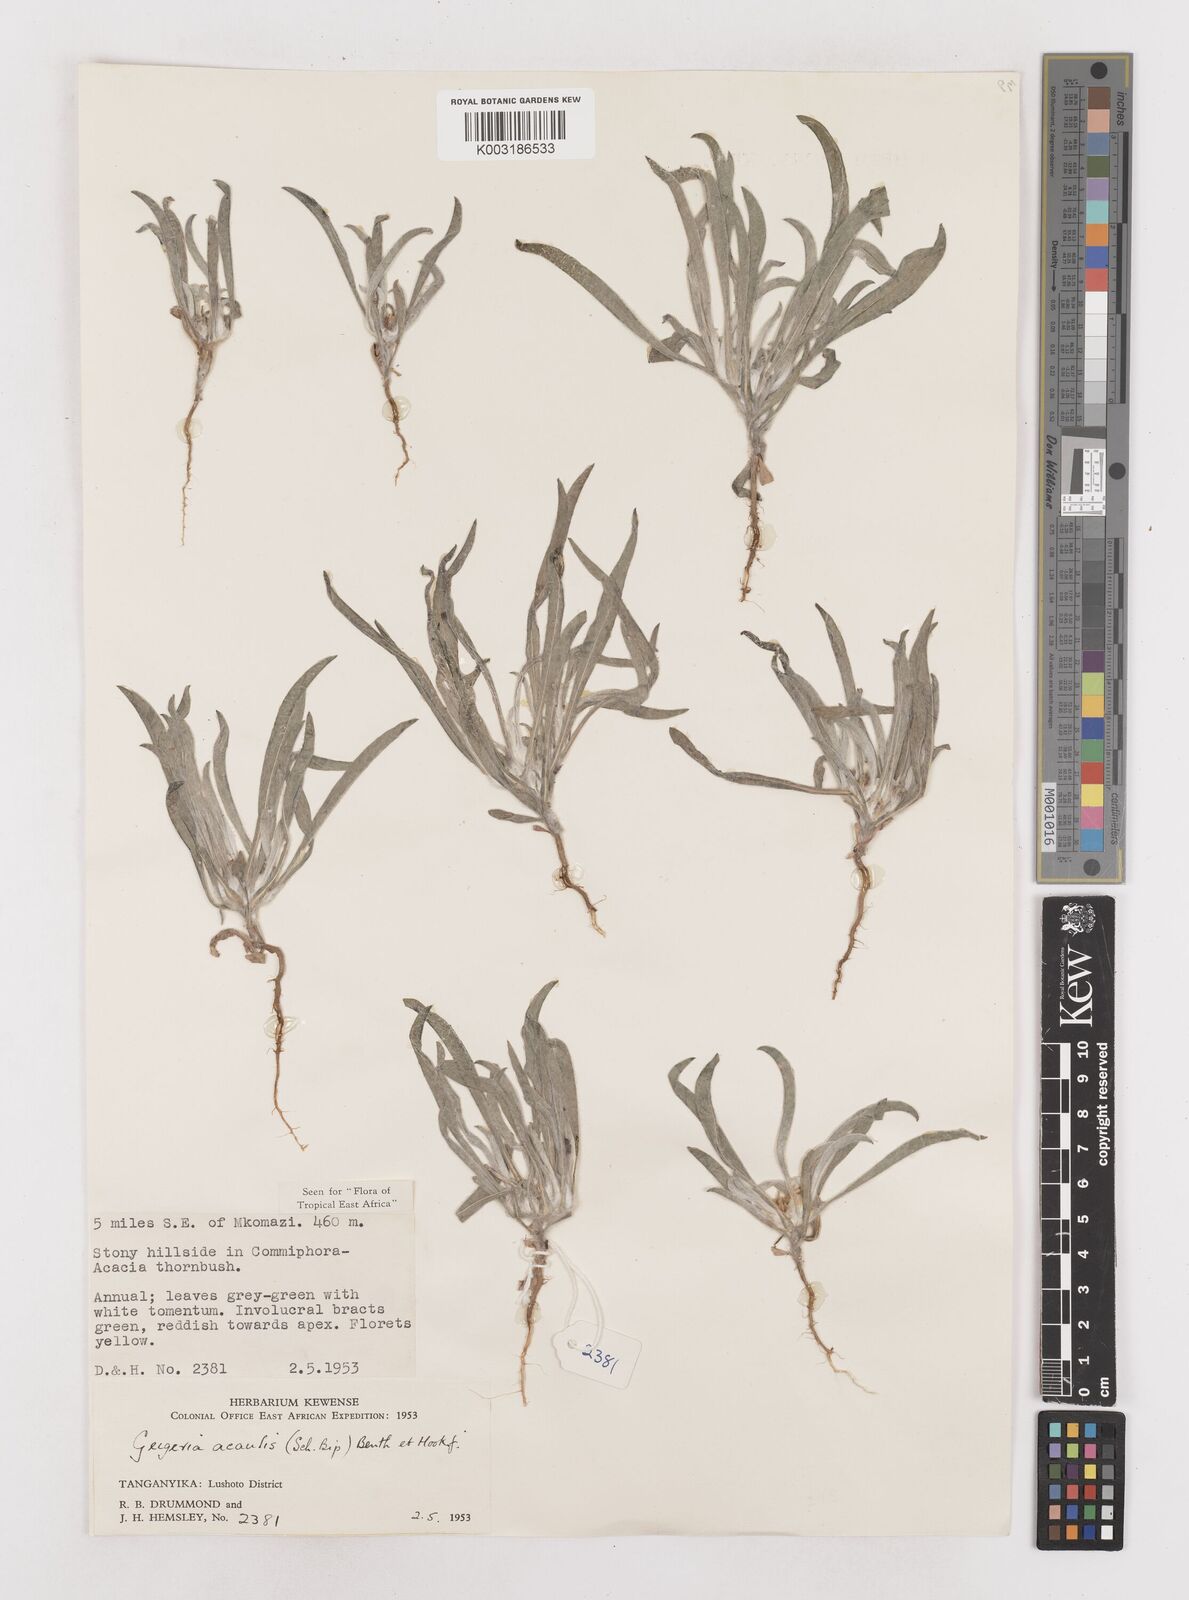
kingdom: Plantae
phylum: Tracheophyta
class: Magnoliopsida
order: Asterales
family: Asteraceae
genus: Geigeria
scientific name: Geigeria acaulis
